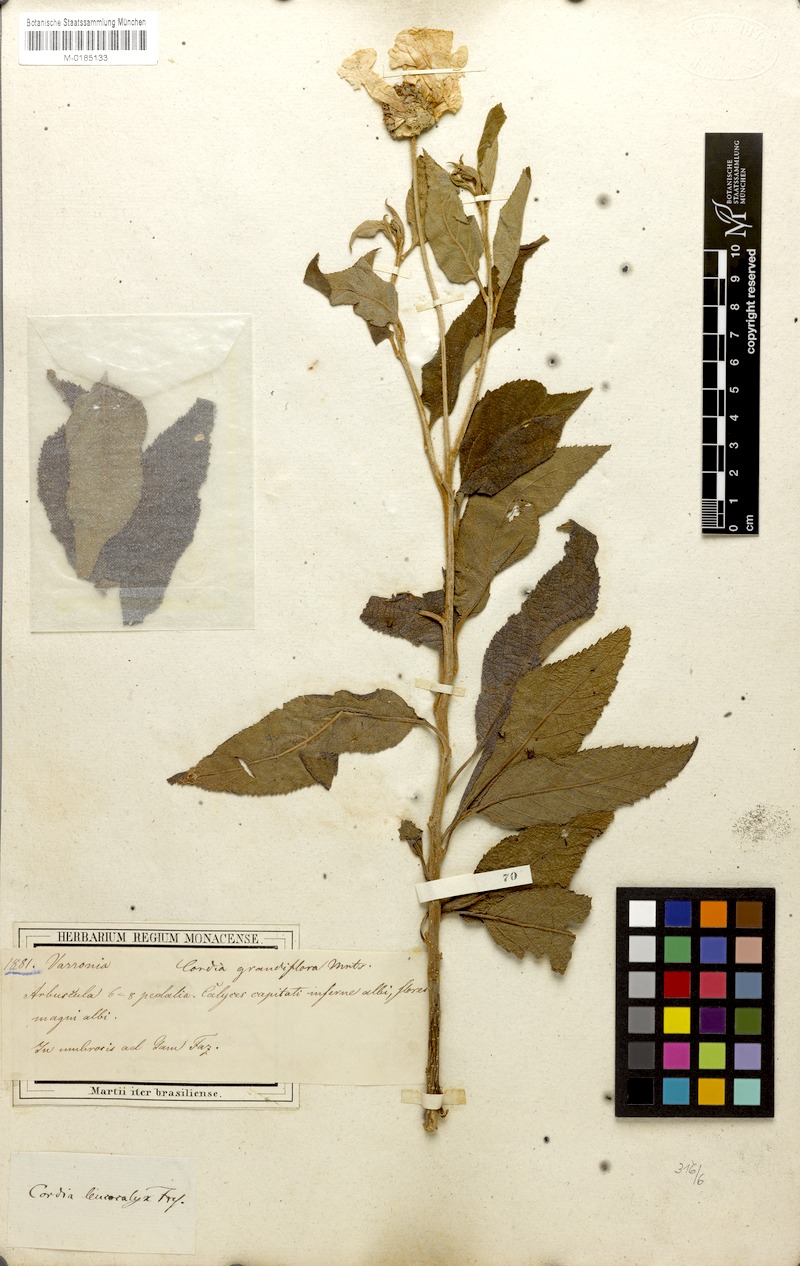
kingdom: Plantae
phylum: Tracheophyta
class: Magnoliopsida
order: Boraginales
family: Cordiaceae
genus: Varronia
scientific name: Varronia leucocephala
